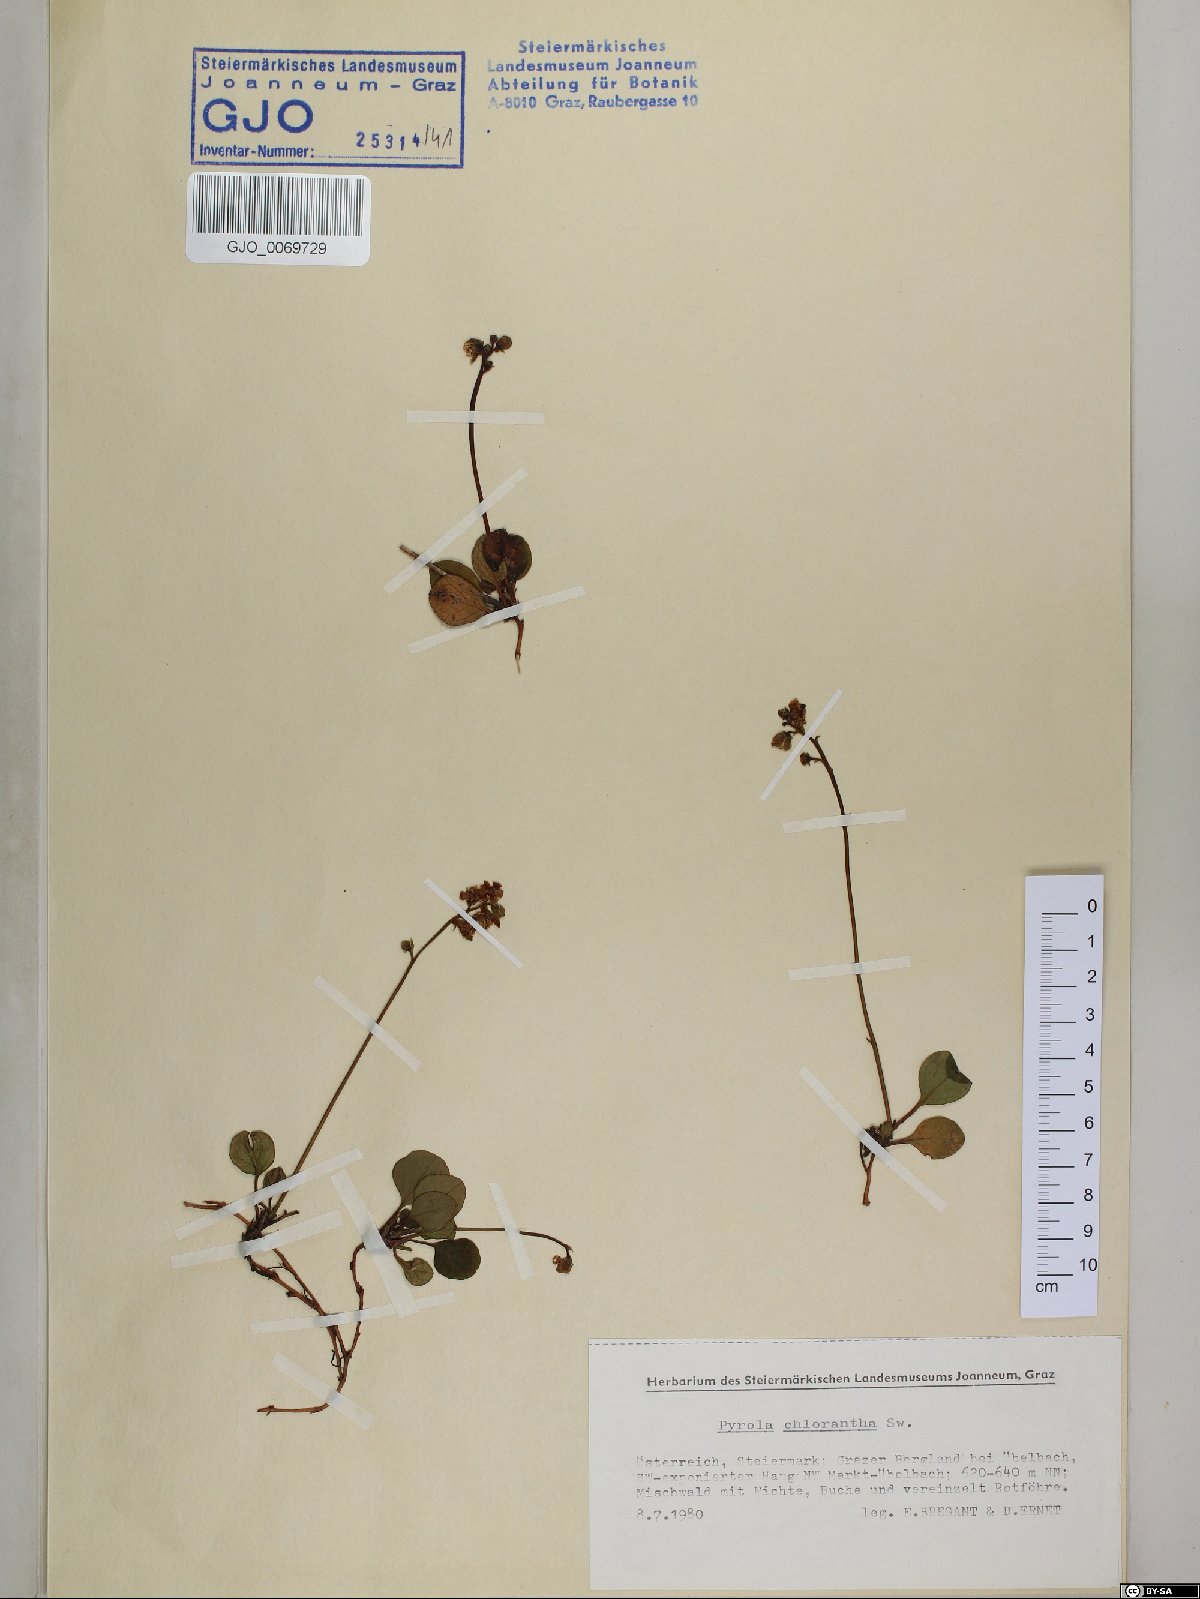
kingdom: Plantae
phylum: Tracheophyta
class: Magnoliopsida
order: Ericales
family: Ericaceae
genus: Pyrola
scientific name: Pyrola chlorantha
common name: Green wintergreen
